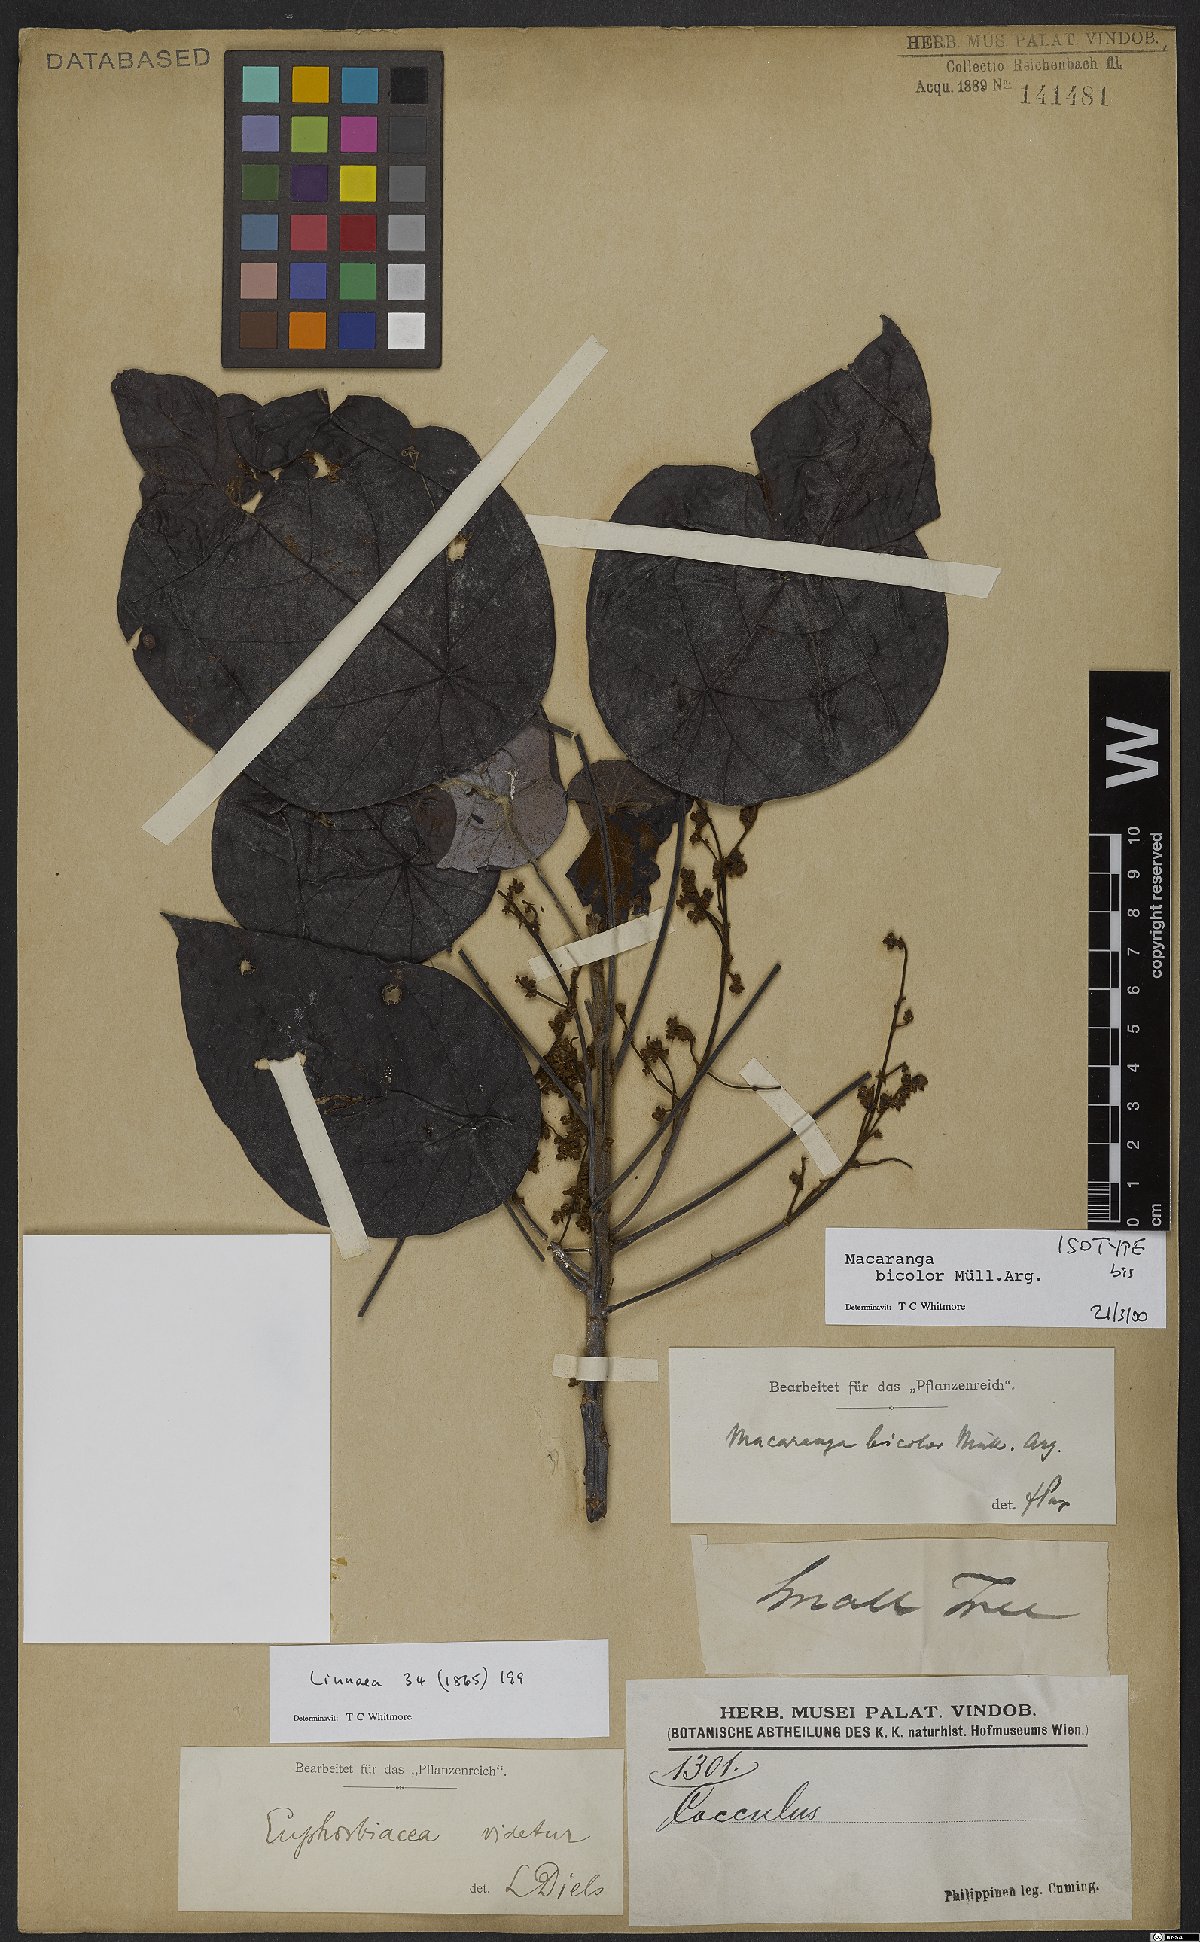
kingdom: Plantae
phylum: Tracheophyta
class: Magnoliopsida
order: Malpighiales
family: Euphorbiaceae
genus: Macaranga
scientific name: Macaranga bicolor
